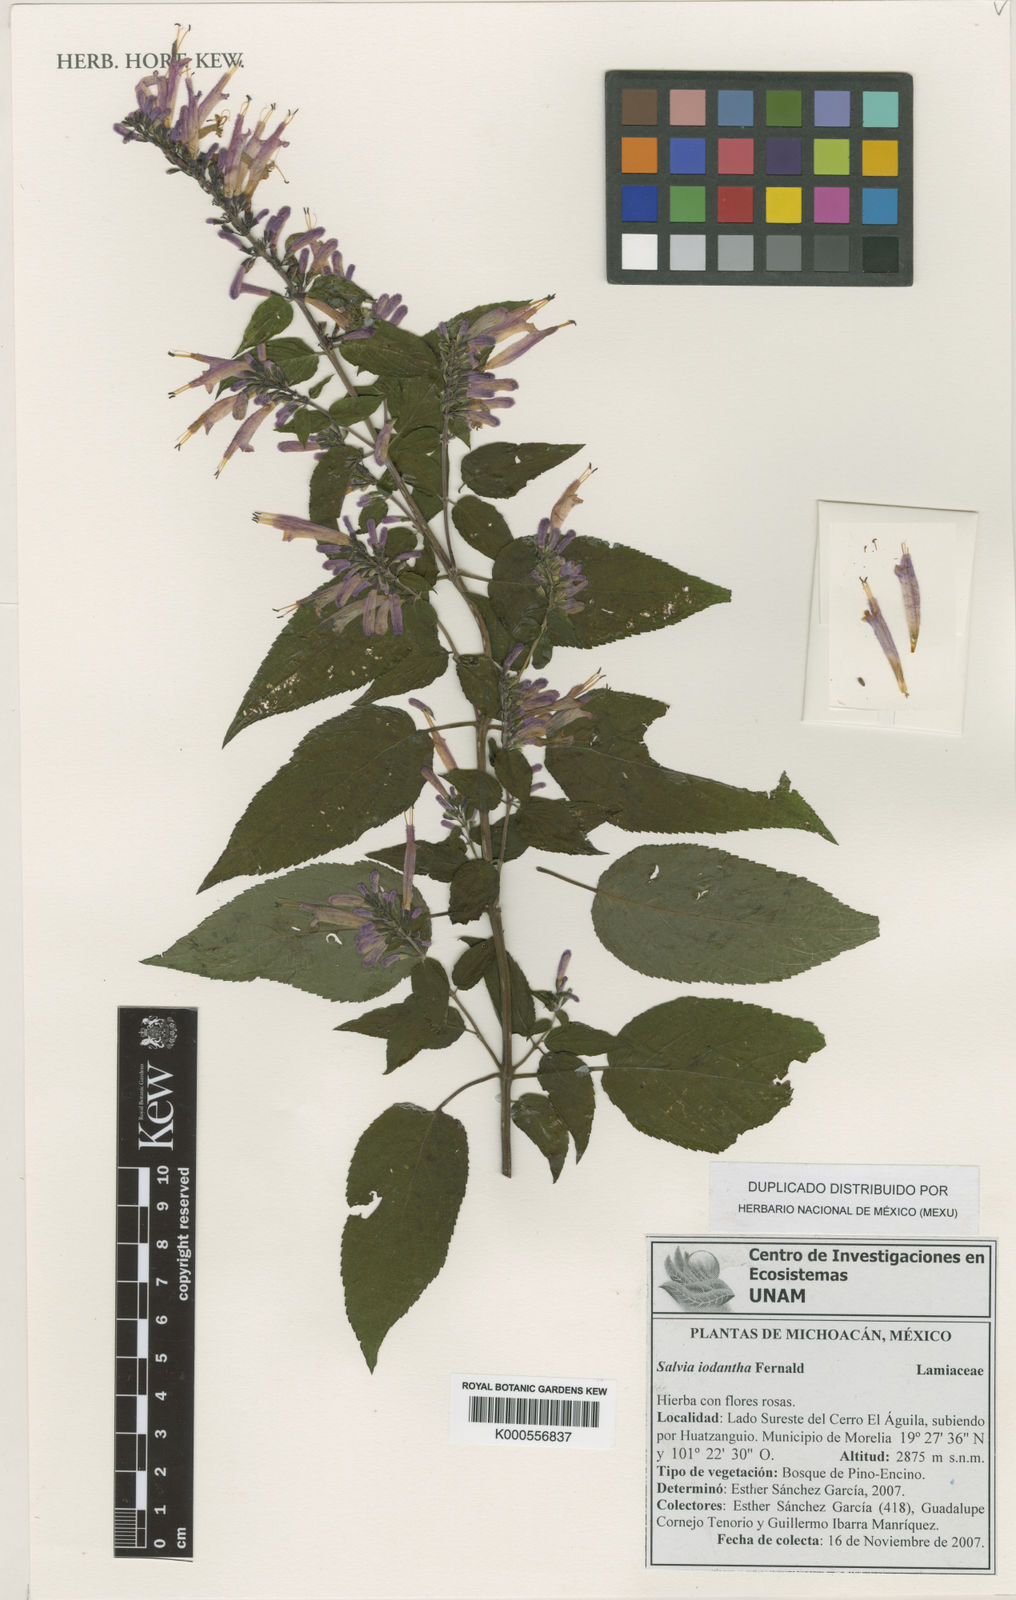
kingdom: Plantae
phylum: Tracheophyta
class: Magnoliopsida
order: Lamiales
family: Lamiaceae
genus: Salvia
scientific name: Salvia iodantha
